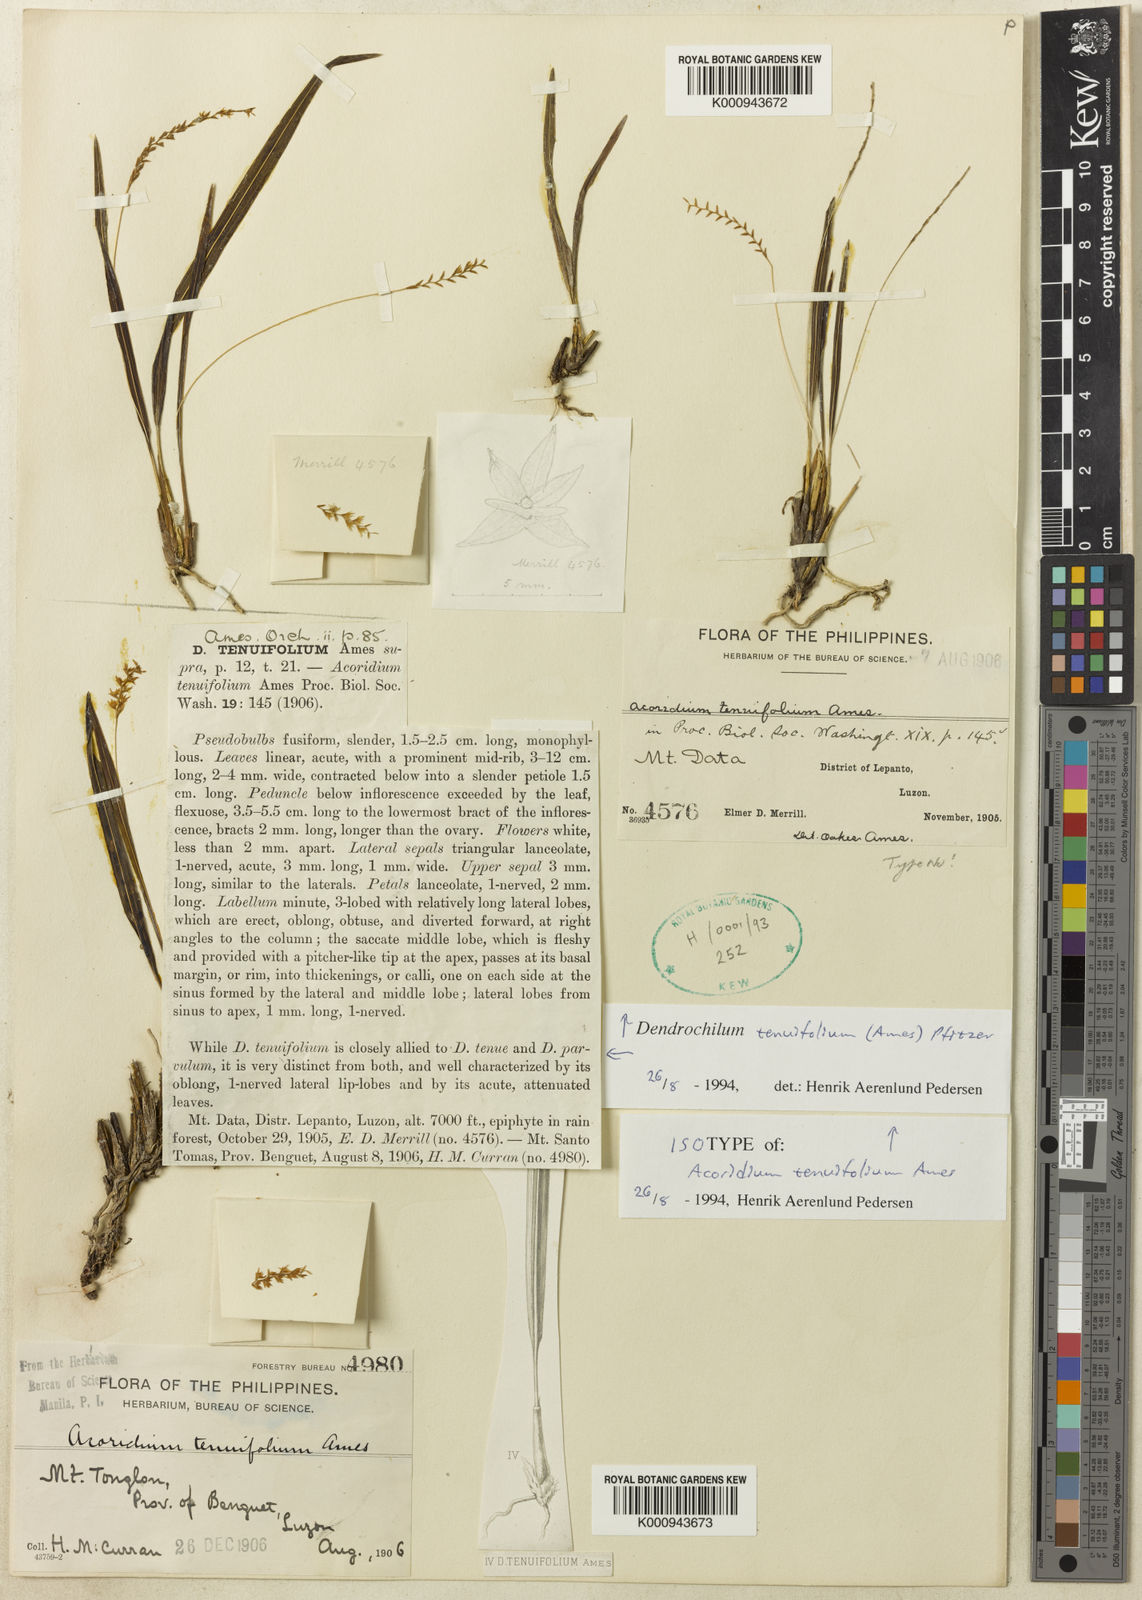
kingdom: Plantae
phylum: Tracheophyta
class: Liliopsida
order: Asparagales
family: Orchidaceae
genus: Coelogyne
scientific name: Coelogyne tenuifolia
